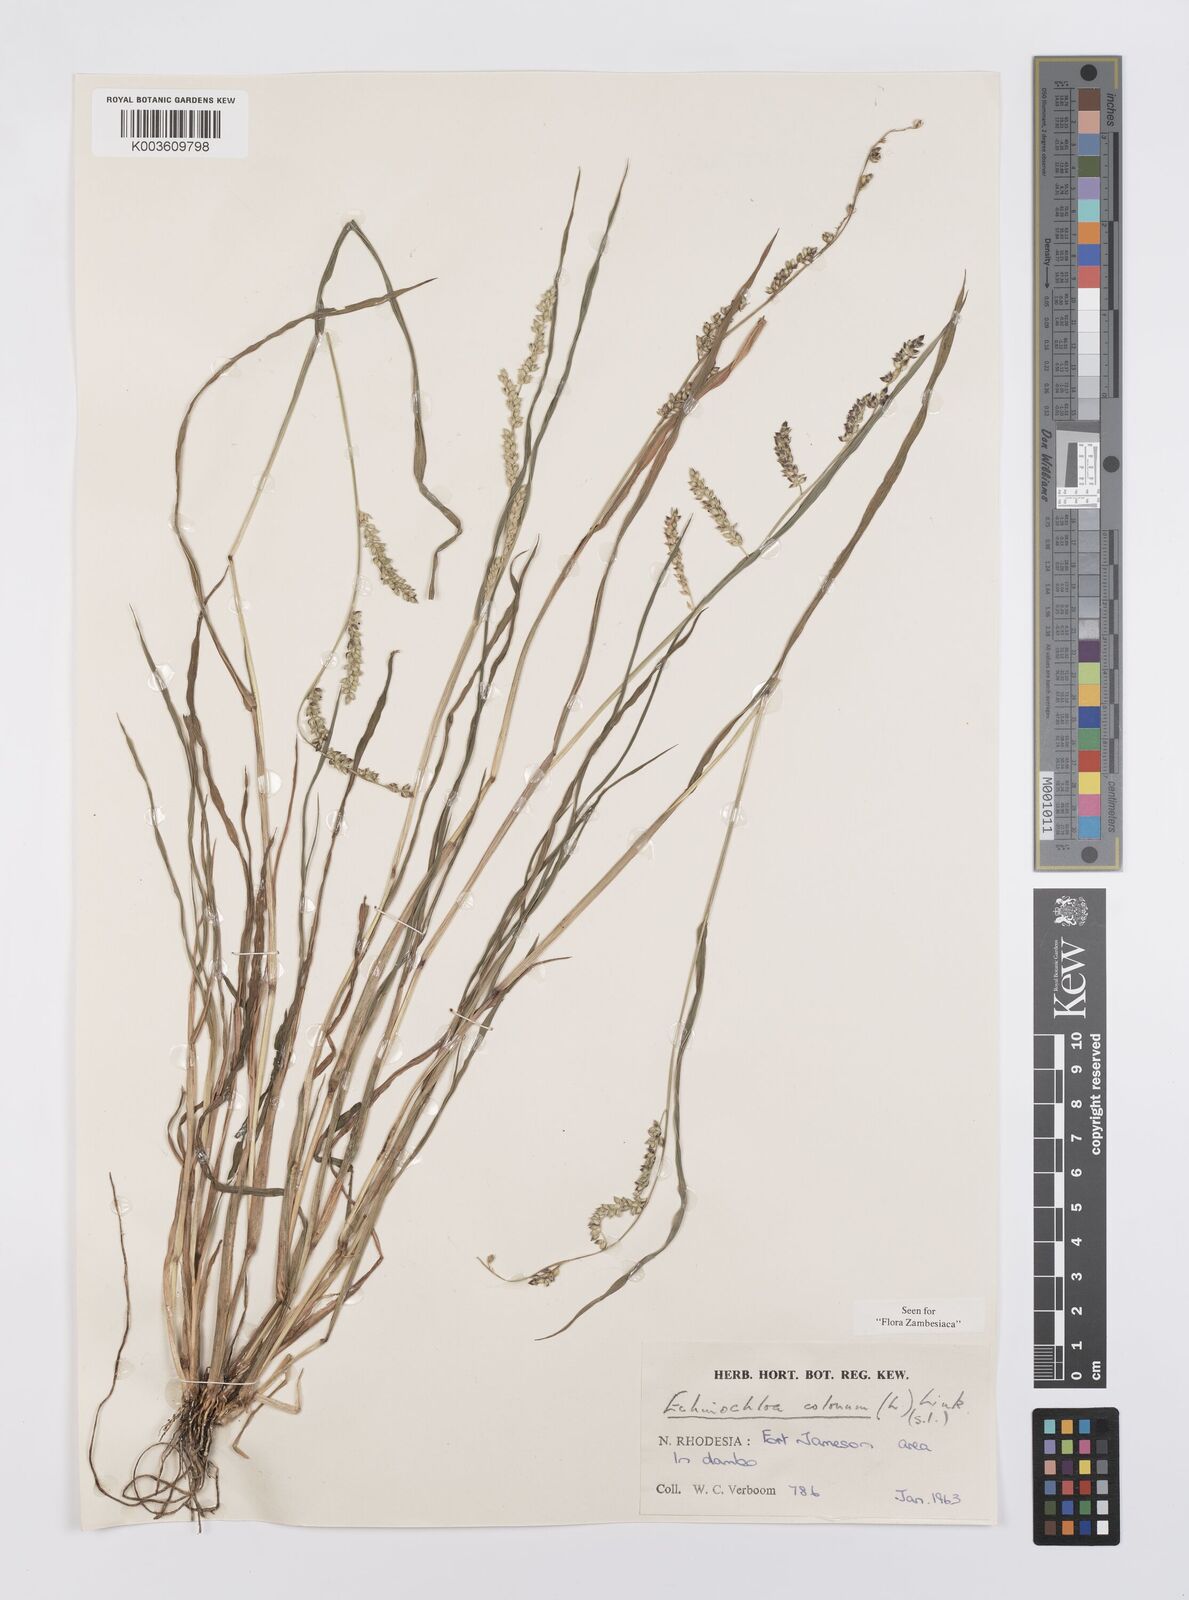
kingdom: Plantae
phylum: Tracheophyta
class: Liliopsida
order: Poales
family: Poaceae
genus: Echinochloa
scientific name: Echinochloa colonum
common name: Jungle rice
